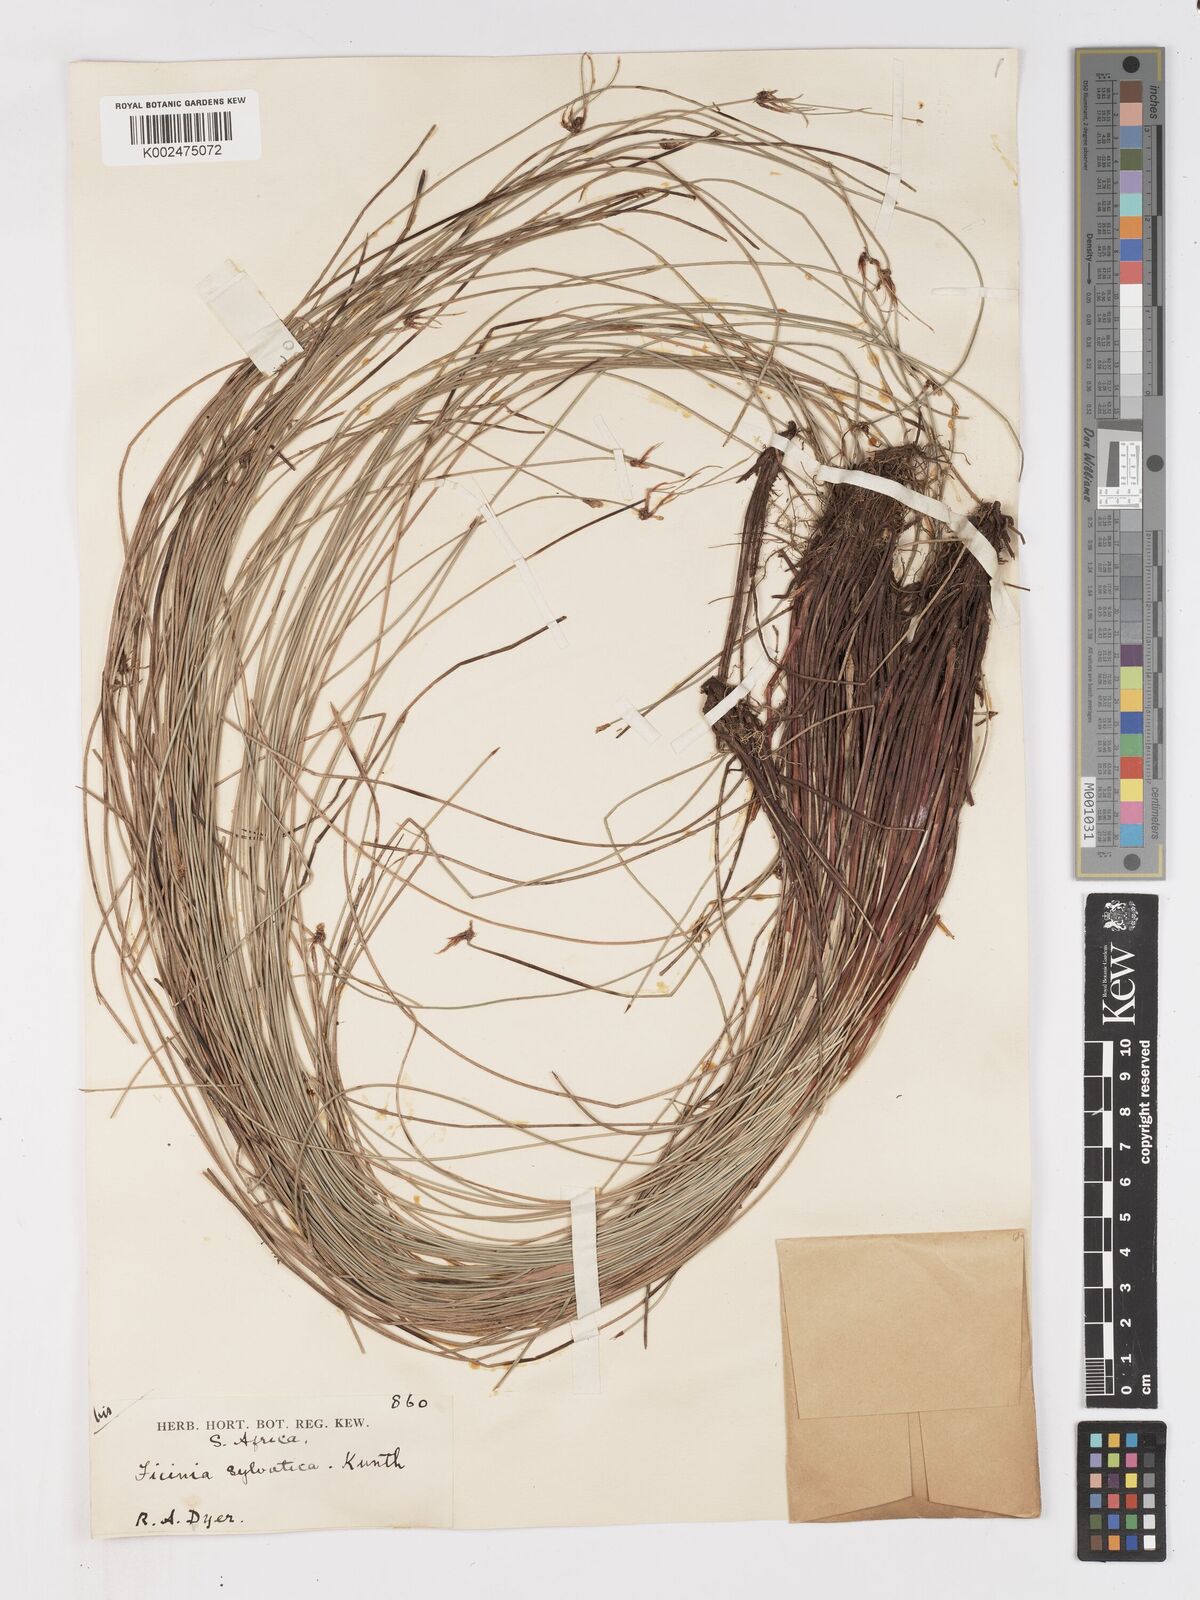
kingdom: Plantae
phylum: Tracheophyta
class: Liliopsida
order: Poales
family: Cyperaceae
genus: Ficinia
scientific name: Ficinia sylvatica
